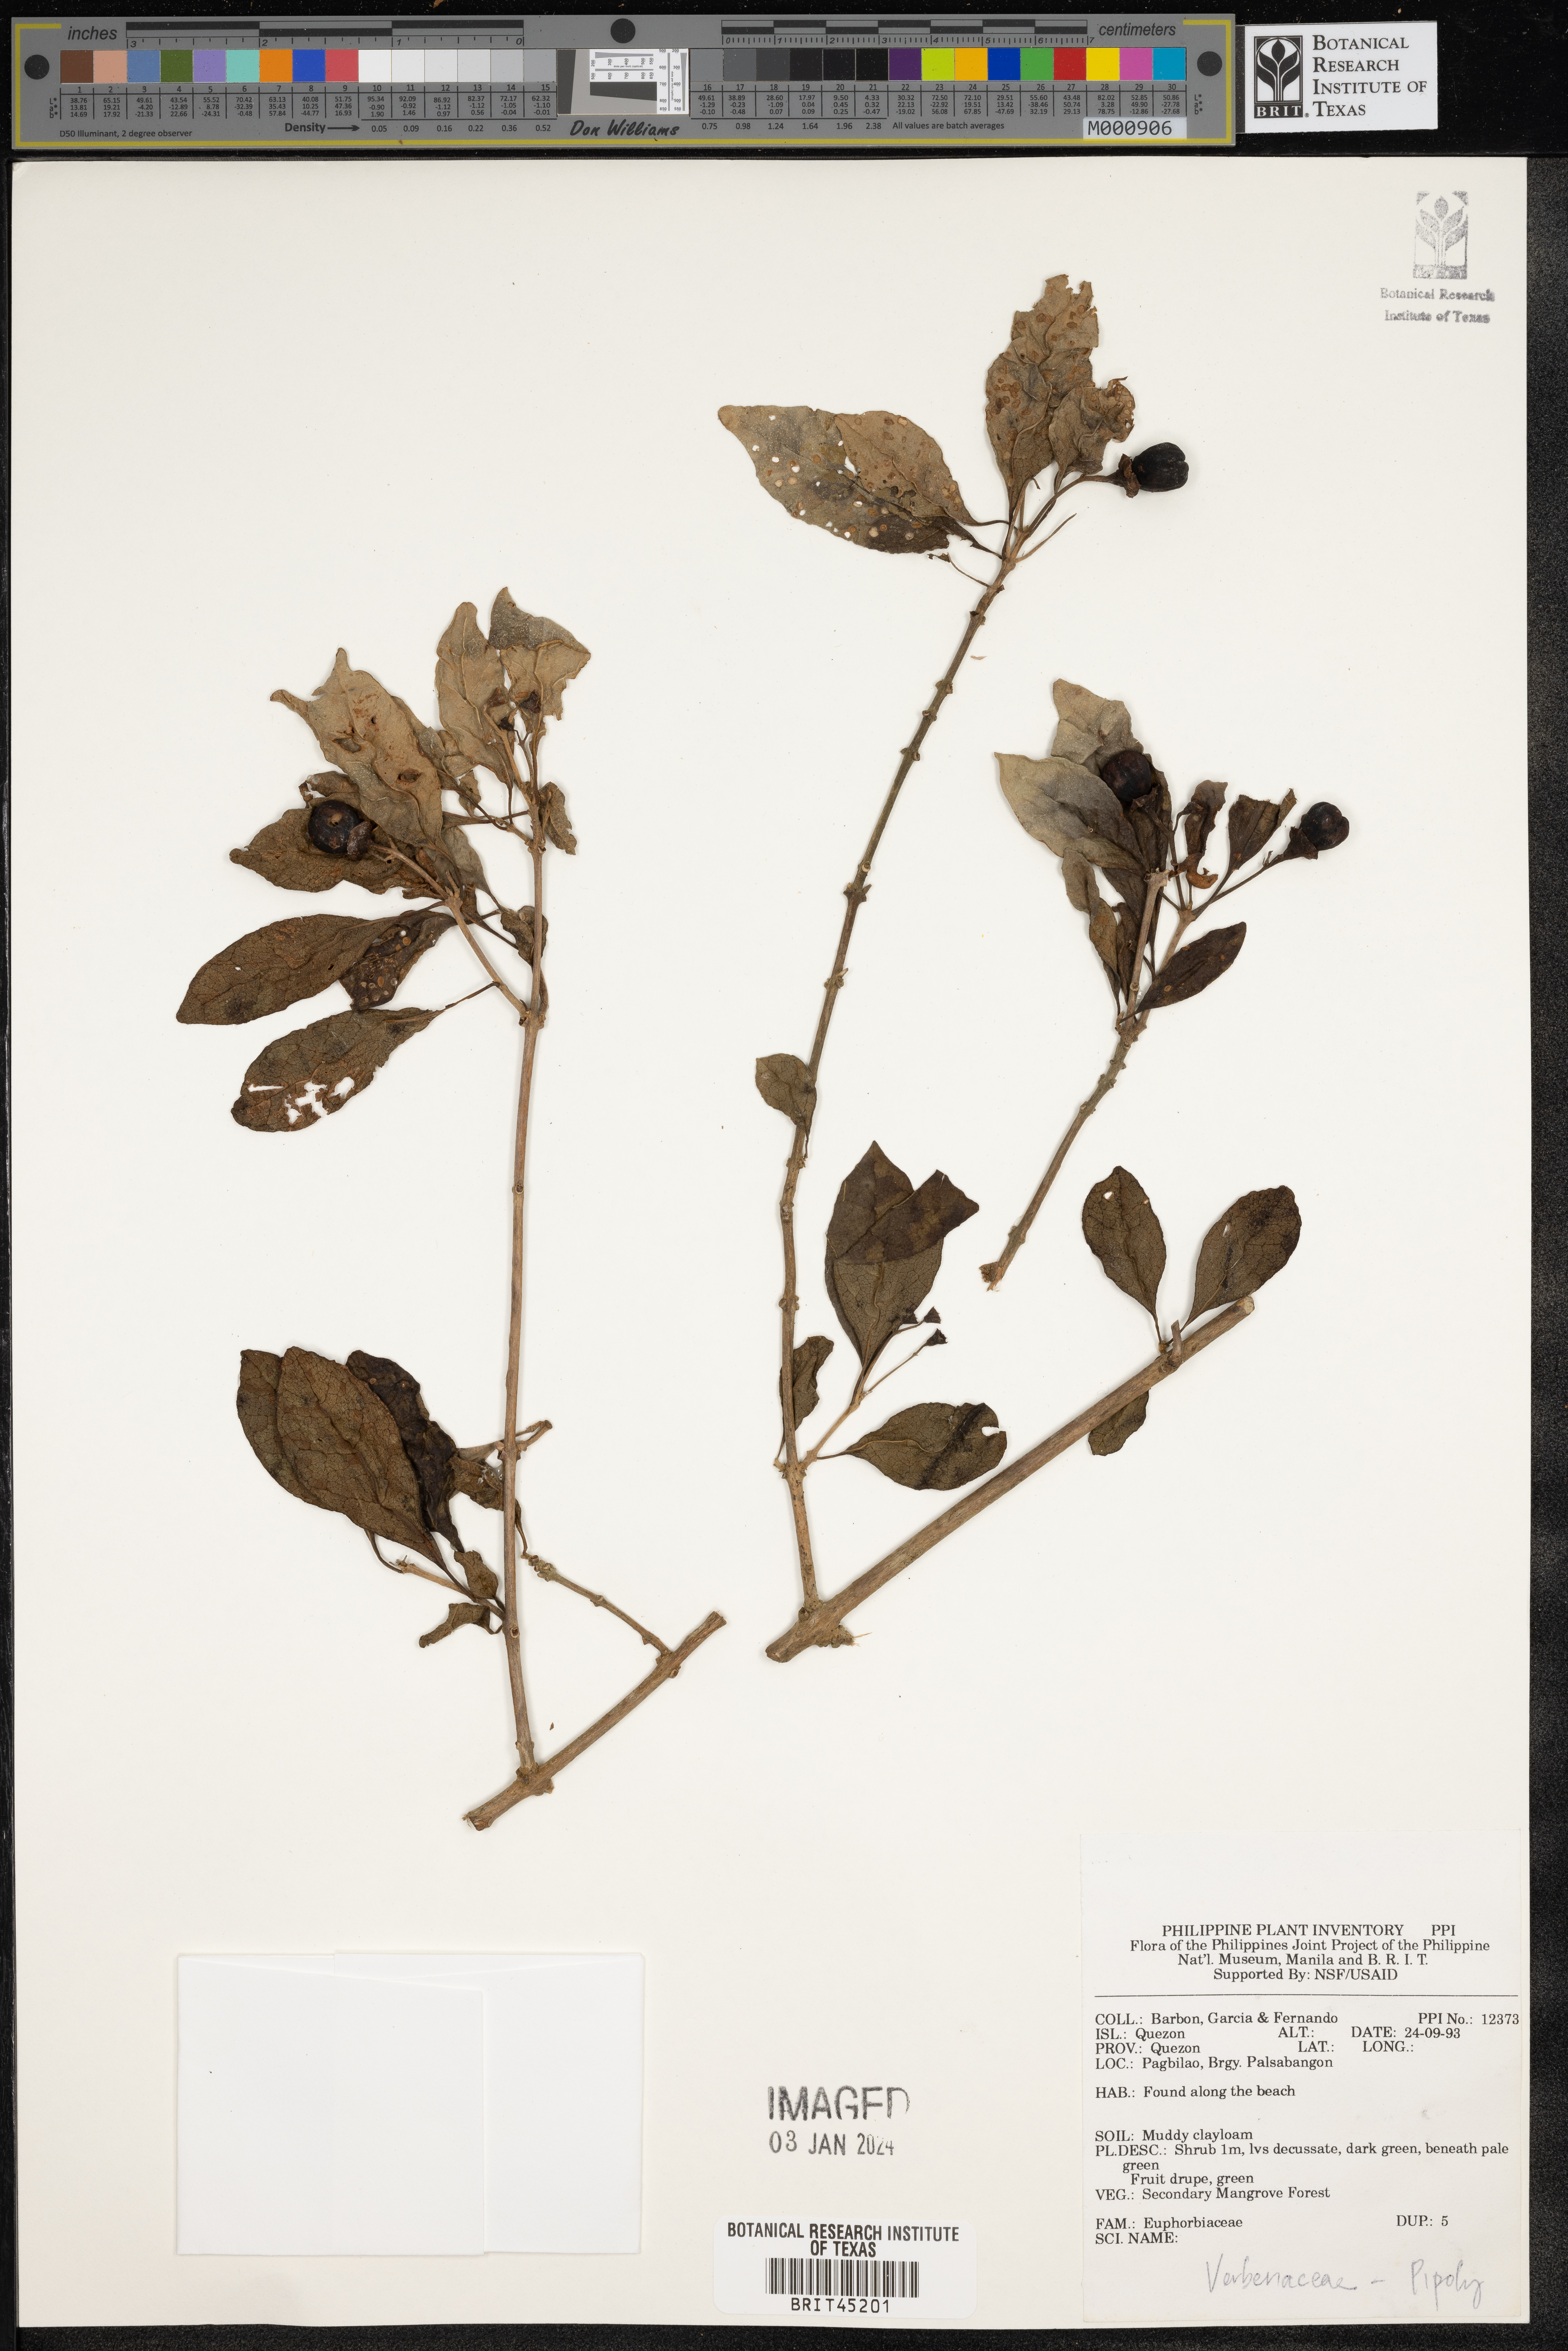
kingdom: Plantae
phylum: Tracheophyta
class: Magnoliopsida
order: Lamiales
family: Verbenaceae
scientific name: Verbenaceae
